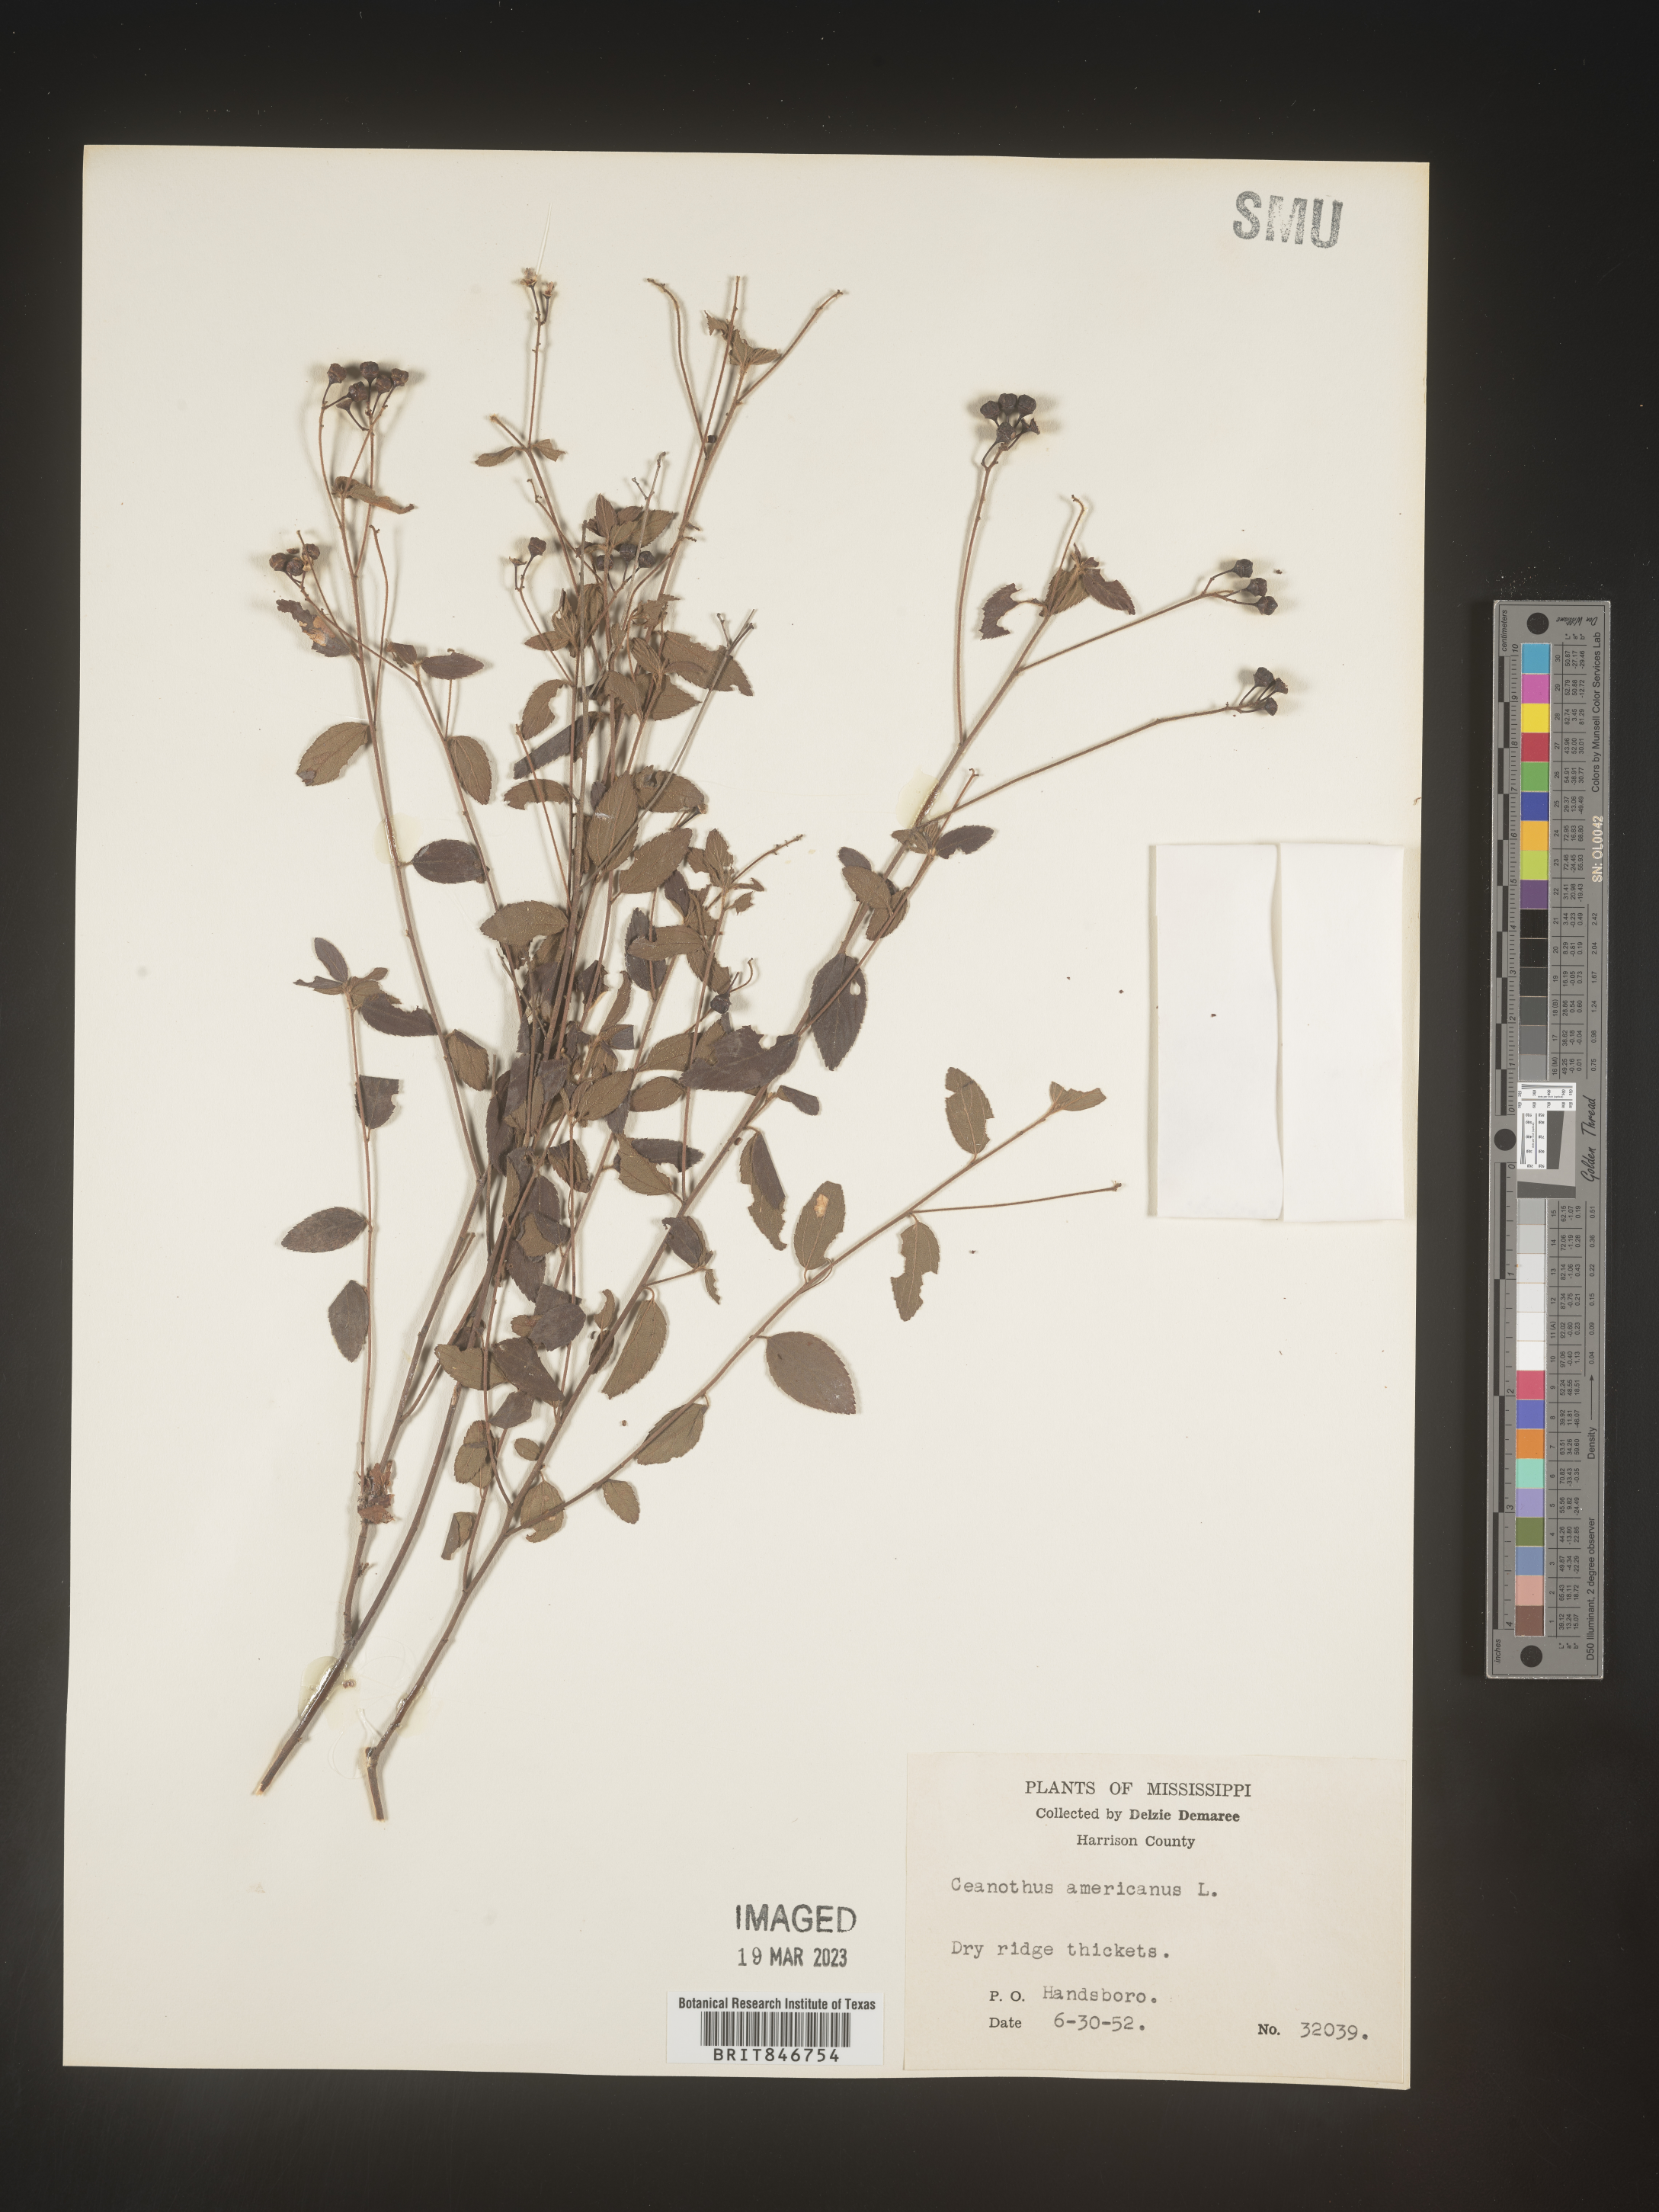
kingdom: Plantae
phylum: Tracheophyta
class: Magnoliopsida
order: Rosales
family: Rhamnaceae
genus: Ceanothus
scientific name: Ceanothus americanus
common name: Redroot
